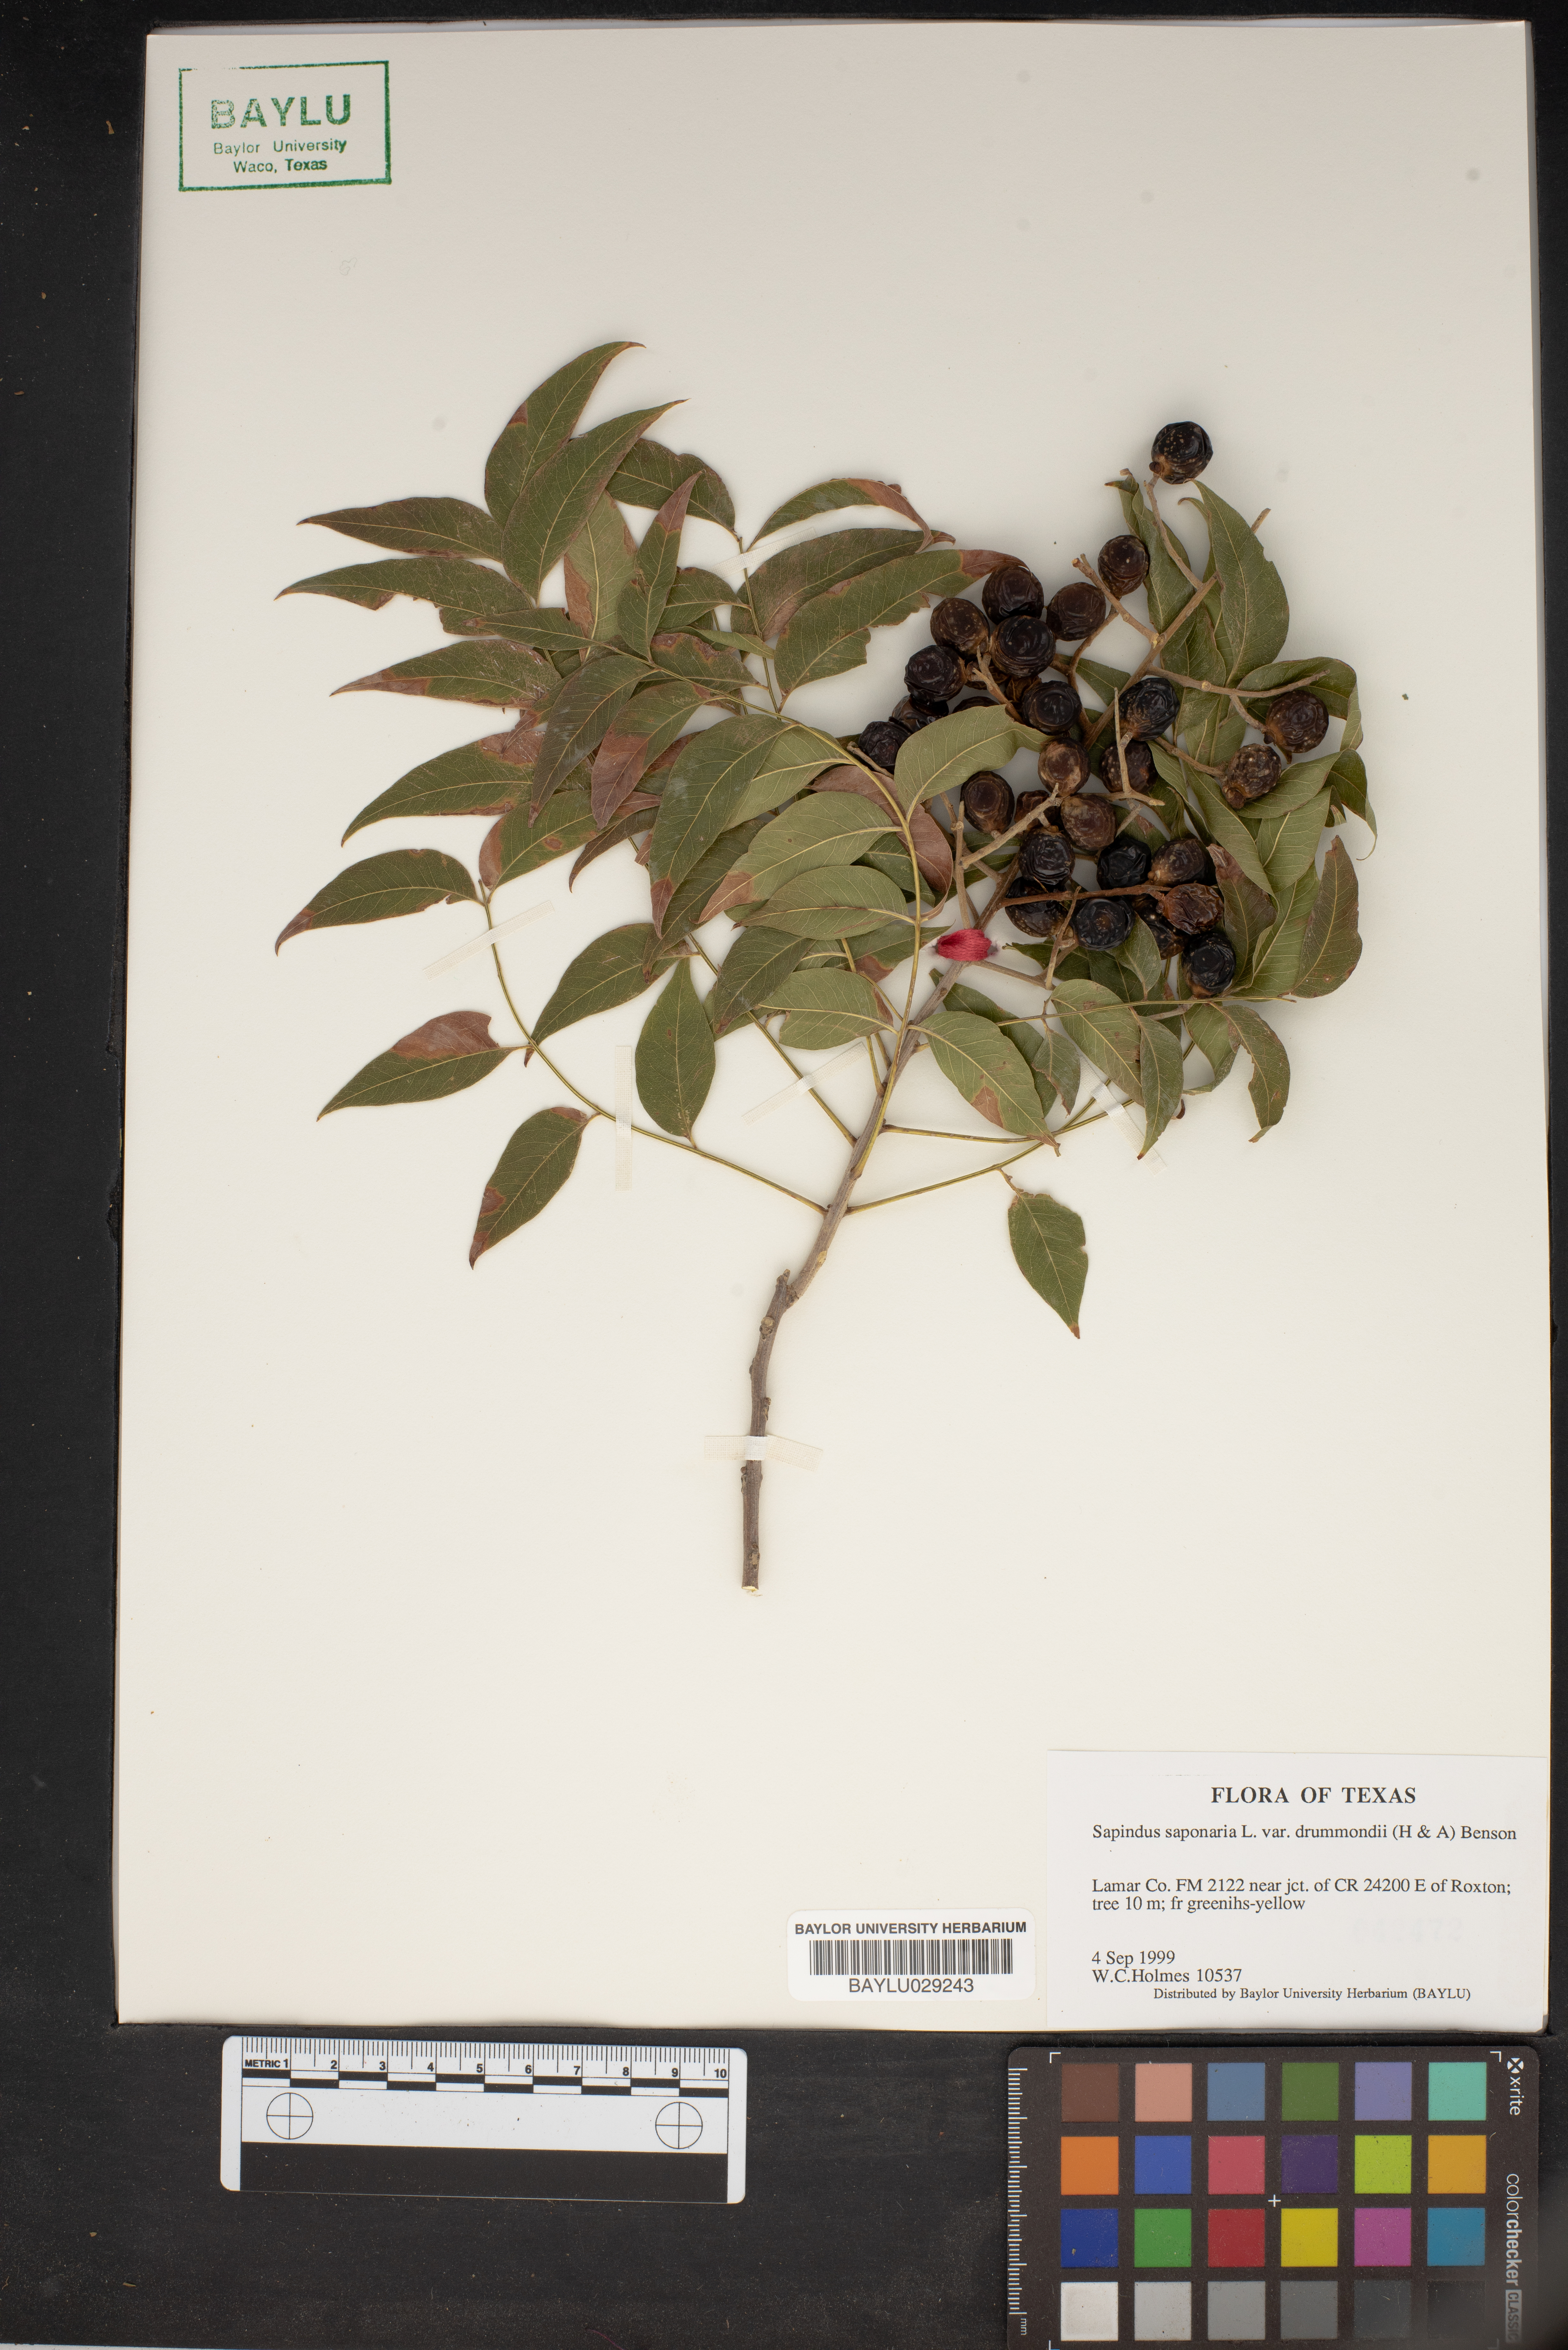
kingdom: Plantae
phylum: Tracheophyta
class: Magnoliopsida
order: Sapindales
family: Sapindaceae
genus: Sapindus
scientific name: Sapindus drummondii
